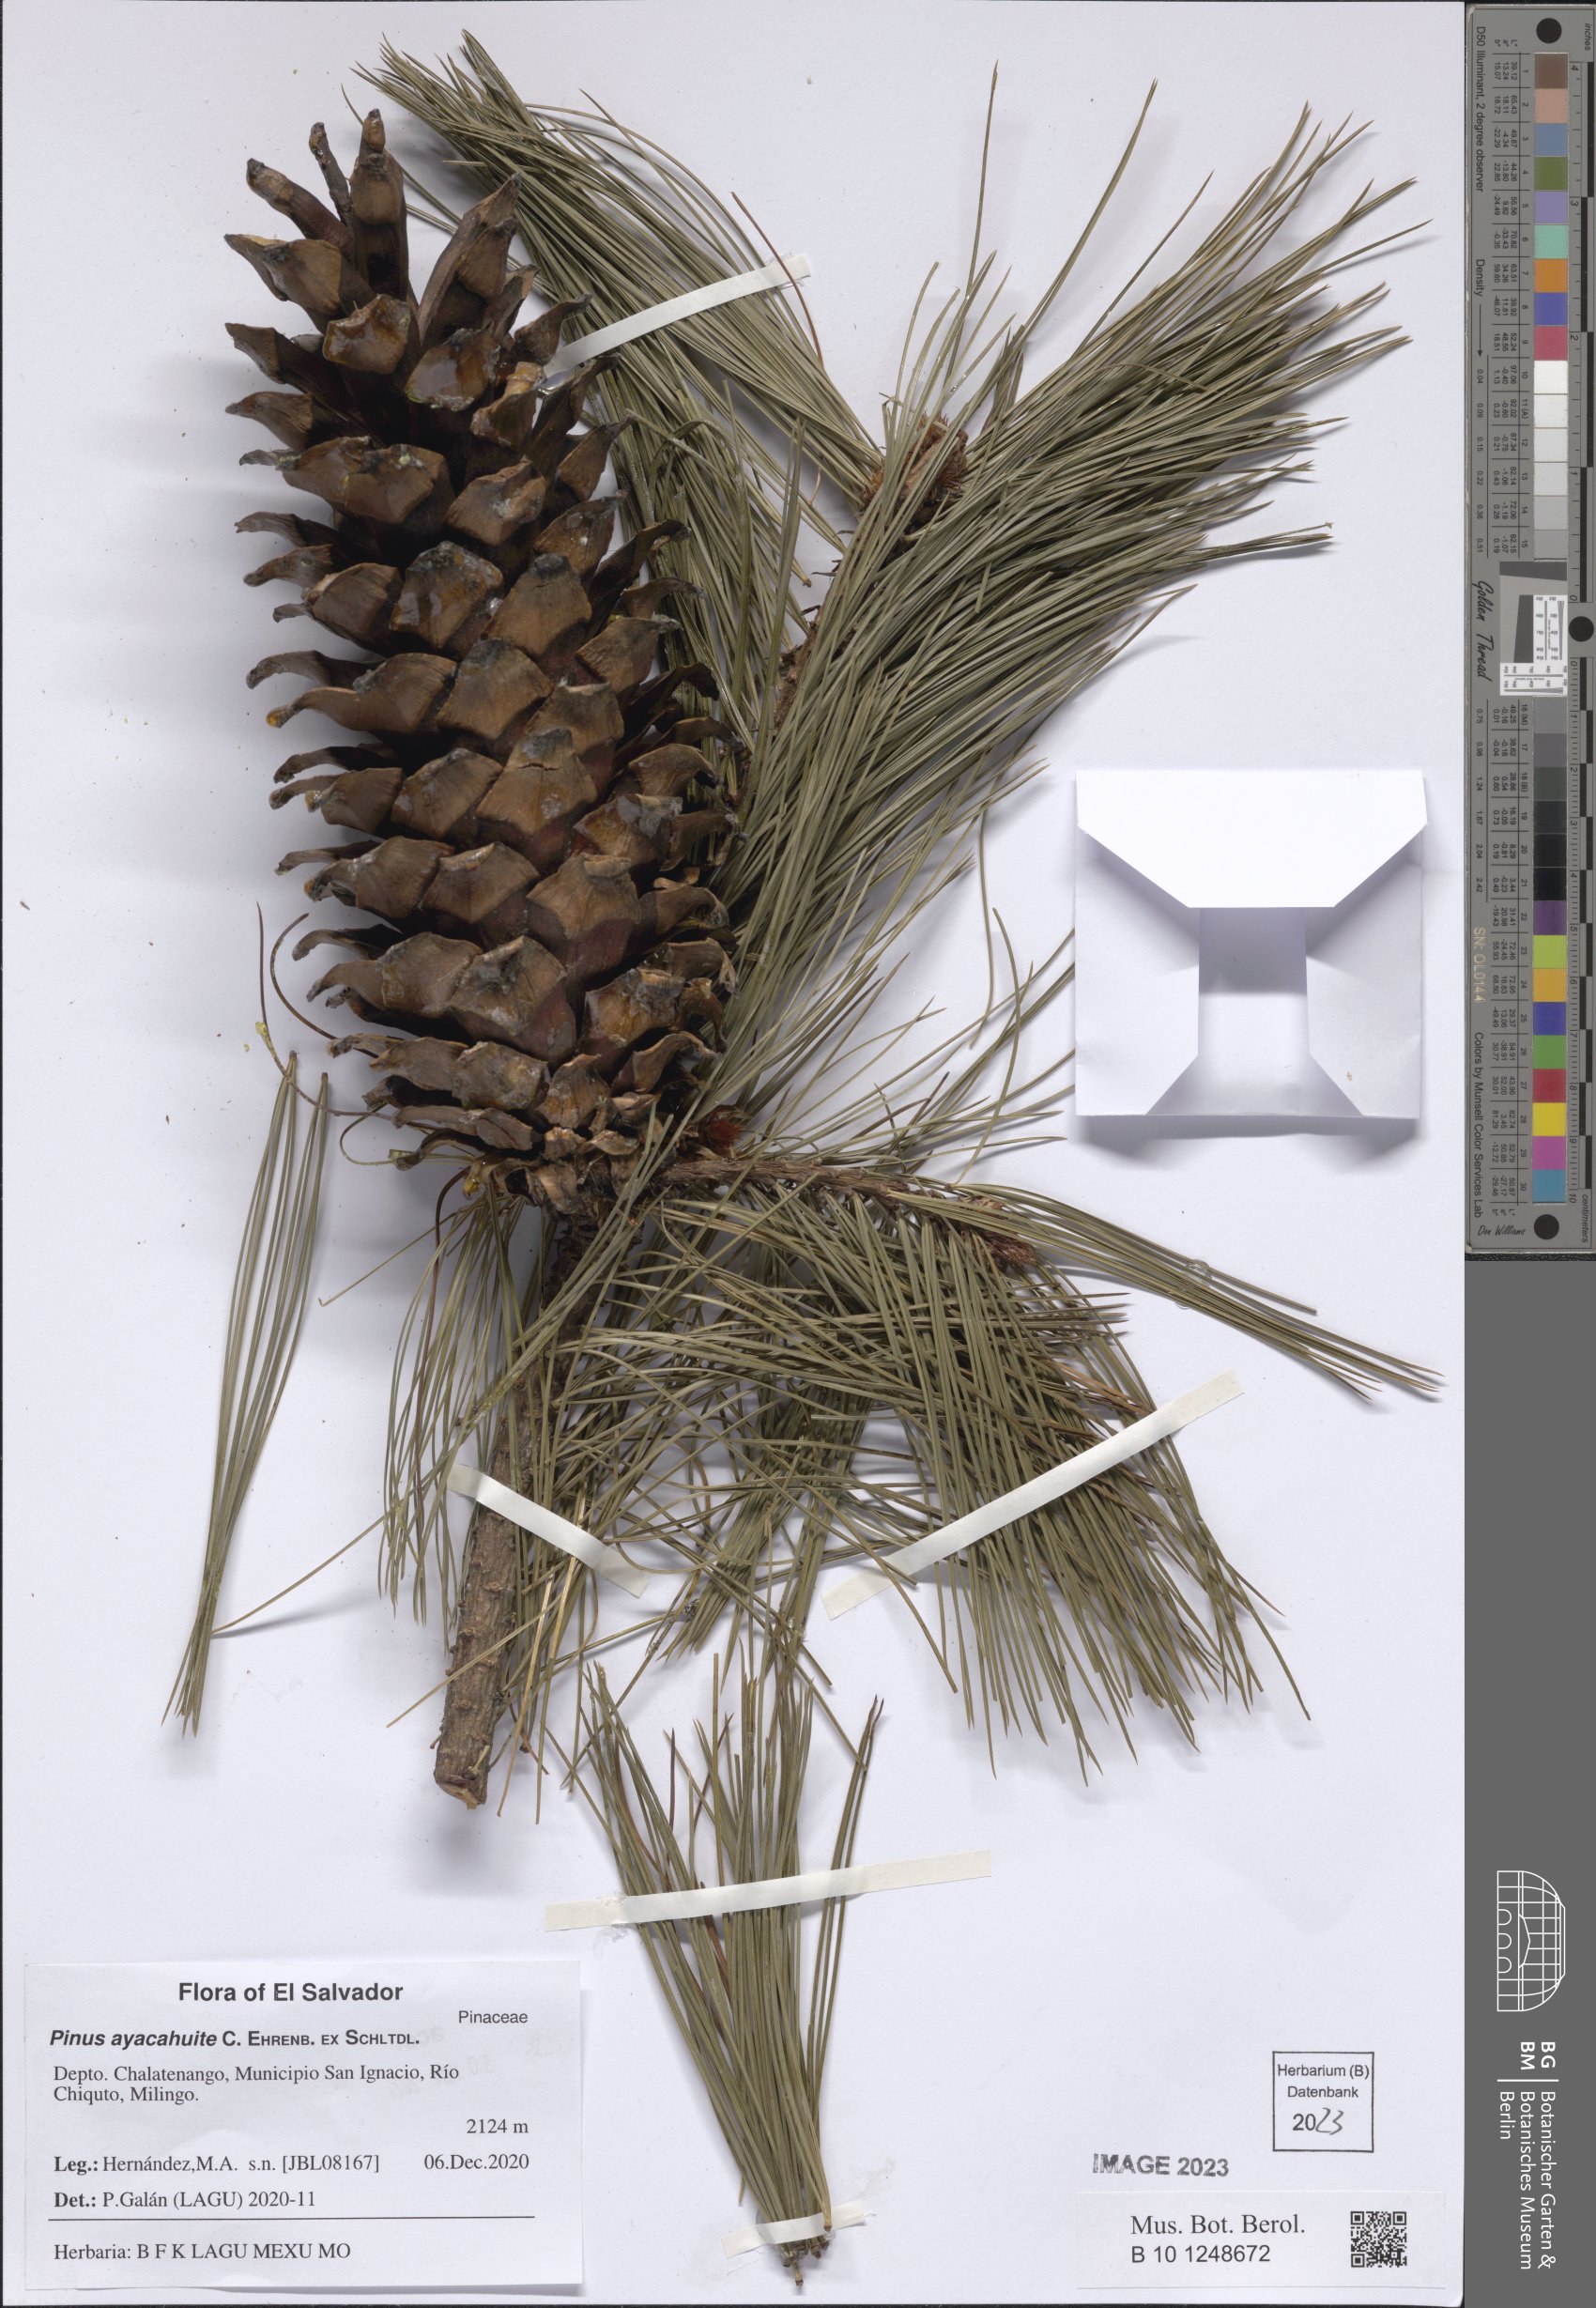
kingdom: Plantae
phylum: Tracheophyta
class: Pinopsida
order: Pinales
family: Pinaceae
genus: Pinus
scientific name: Pinus ayacahuite
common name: Mexican white pine
